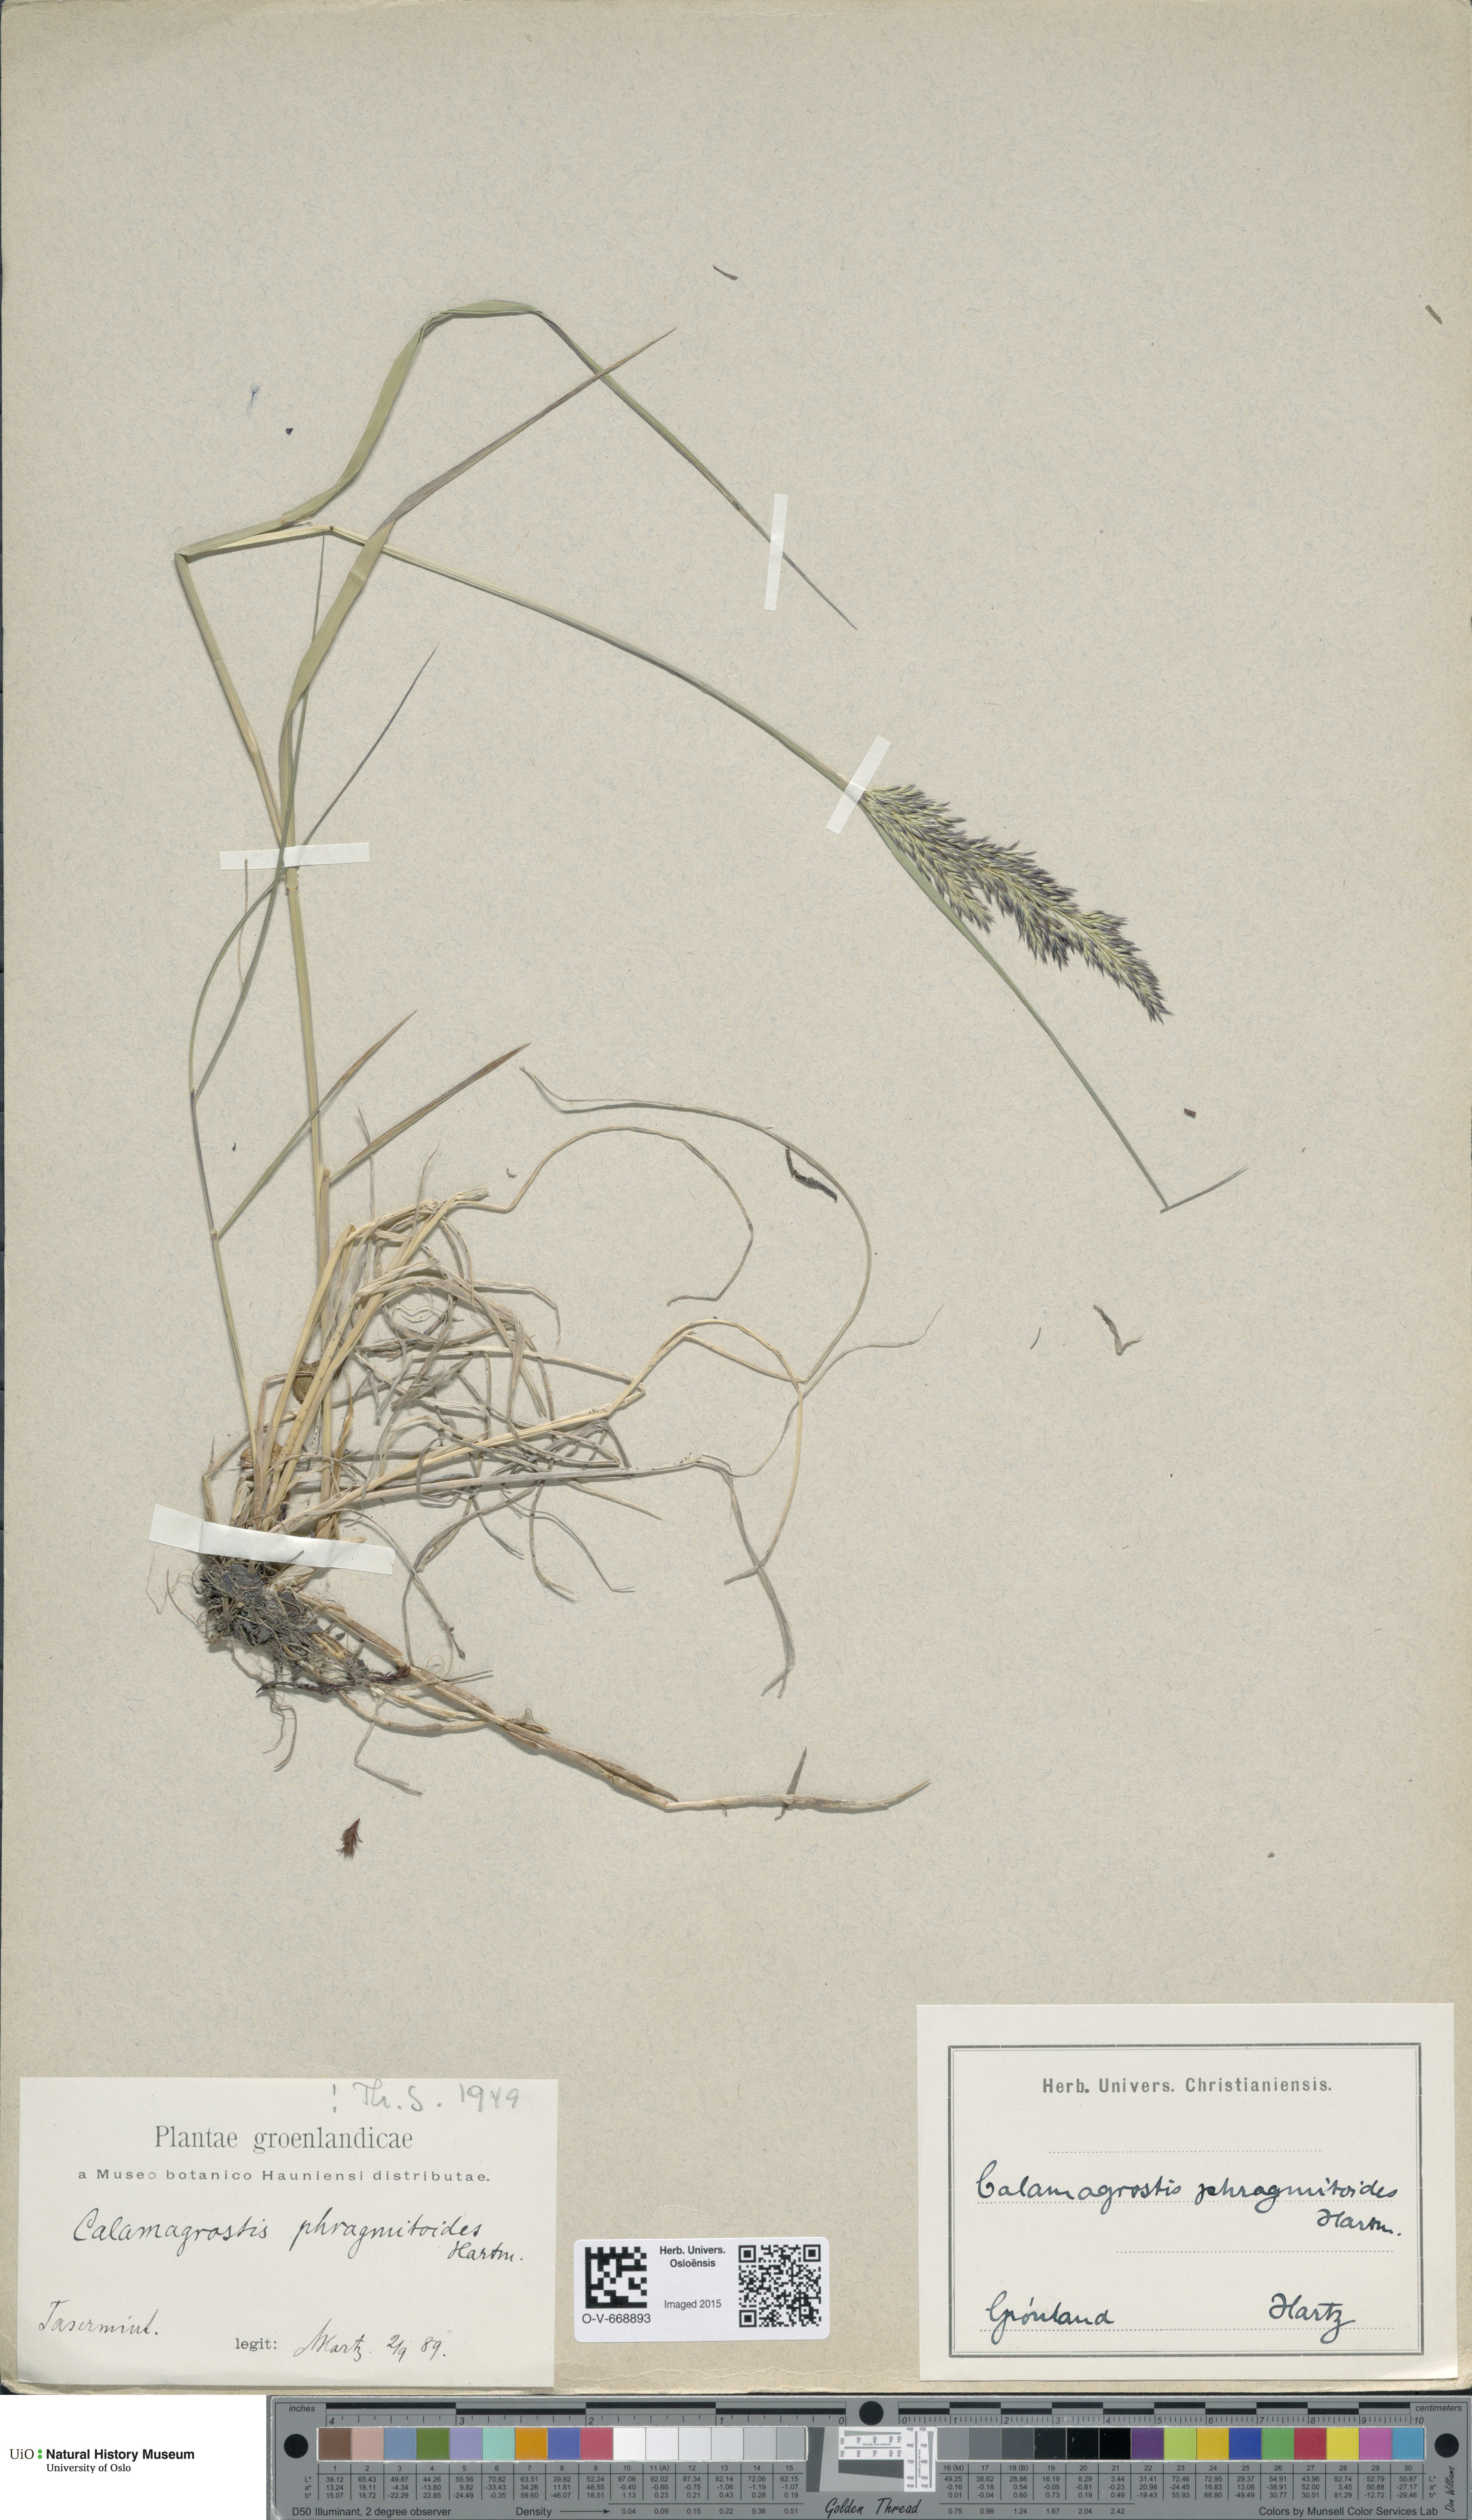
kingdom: Plantae
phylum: Tracheophyta
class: Liliopsida
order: Poales
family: Poaceae
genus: Calamagrostis
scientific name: Calamagrostis purpurea
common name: Scandinavian small-reed
